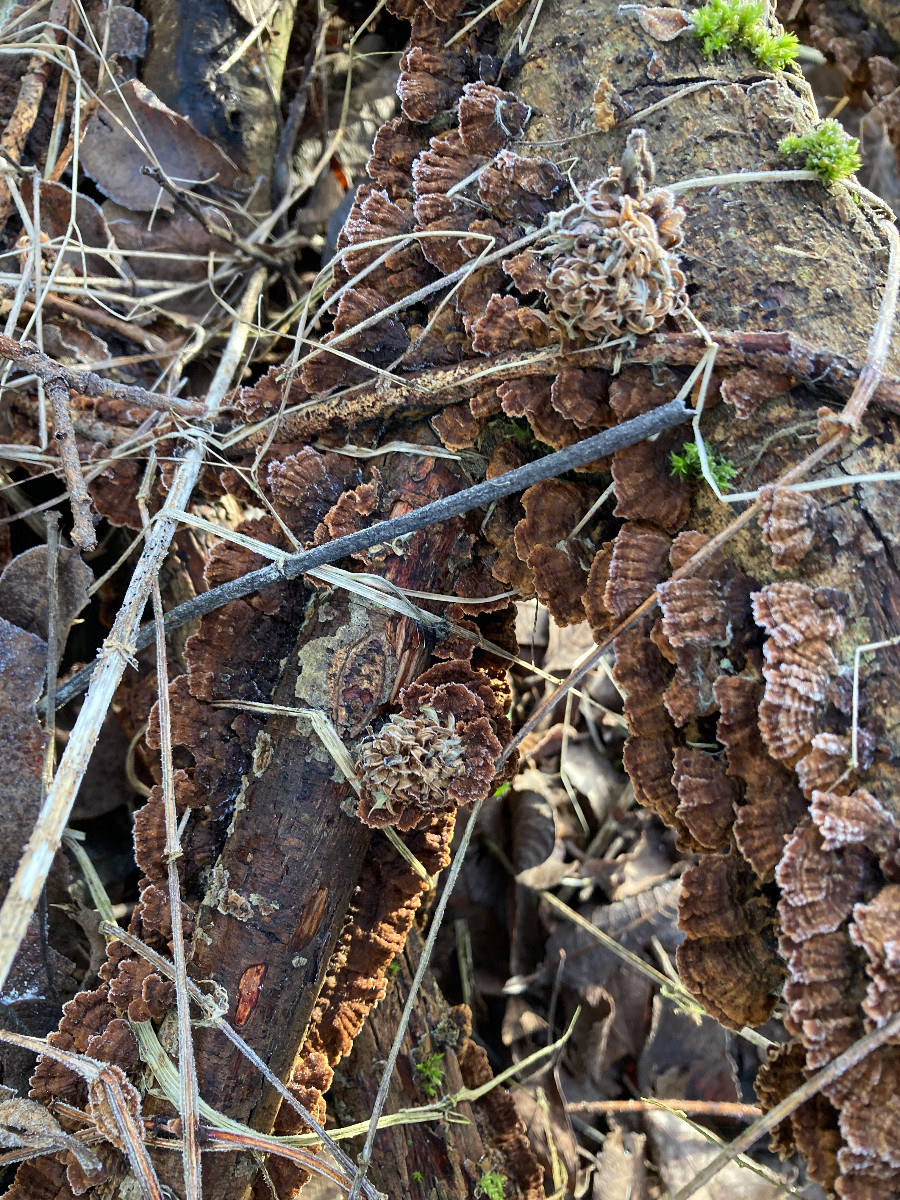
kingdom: Fungi
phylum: Basidiomycota
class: Agaricomycetes
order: Hymenochaetales
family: Hymenochaetaceae
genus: Hydnoporia
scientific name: Hydnoporia tabacina
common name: tobaksbrun ruslædersvamp
